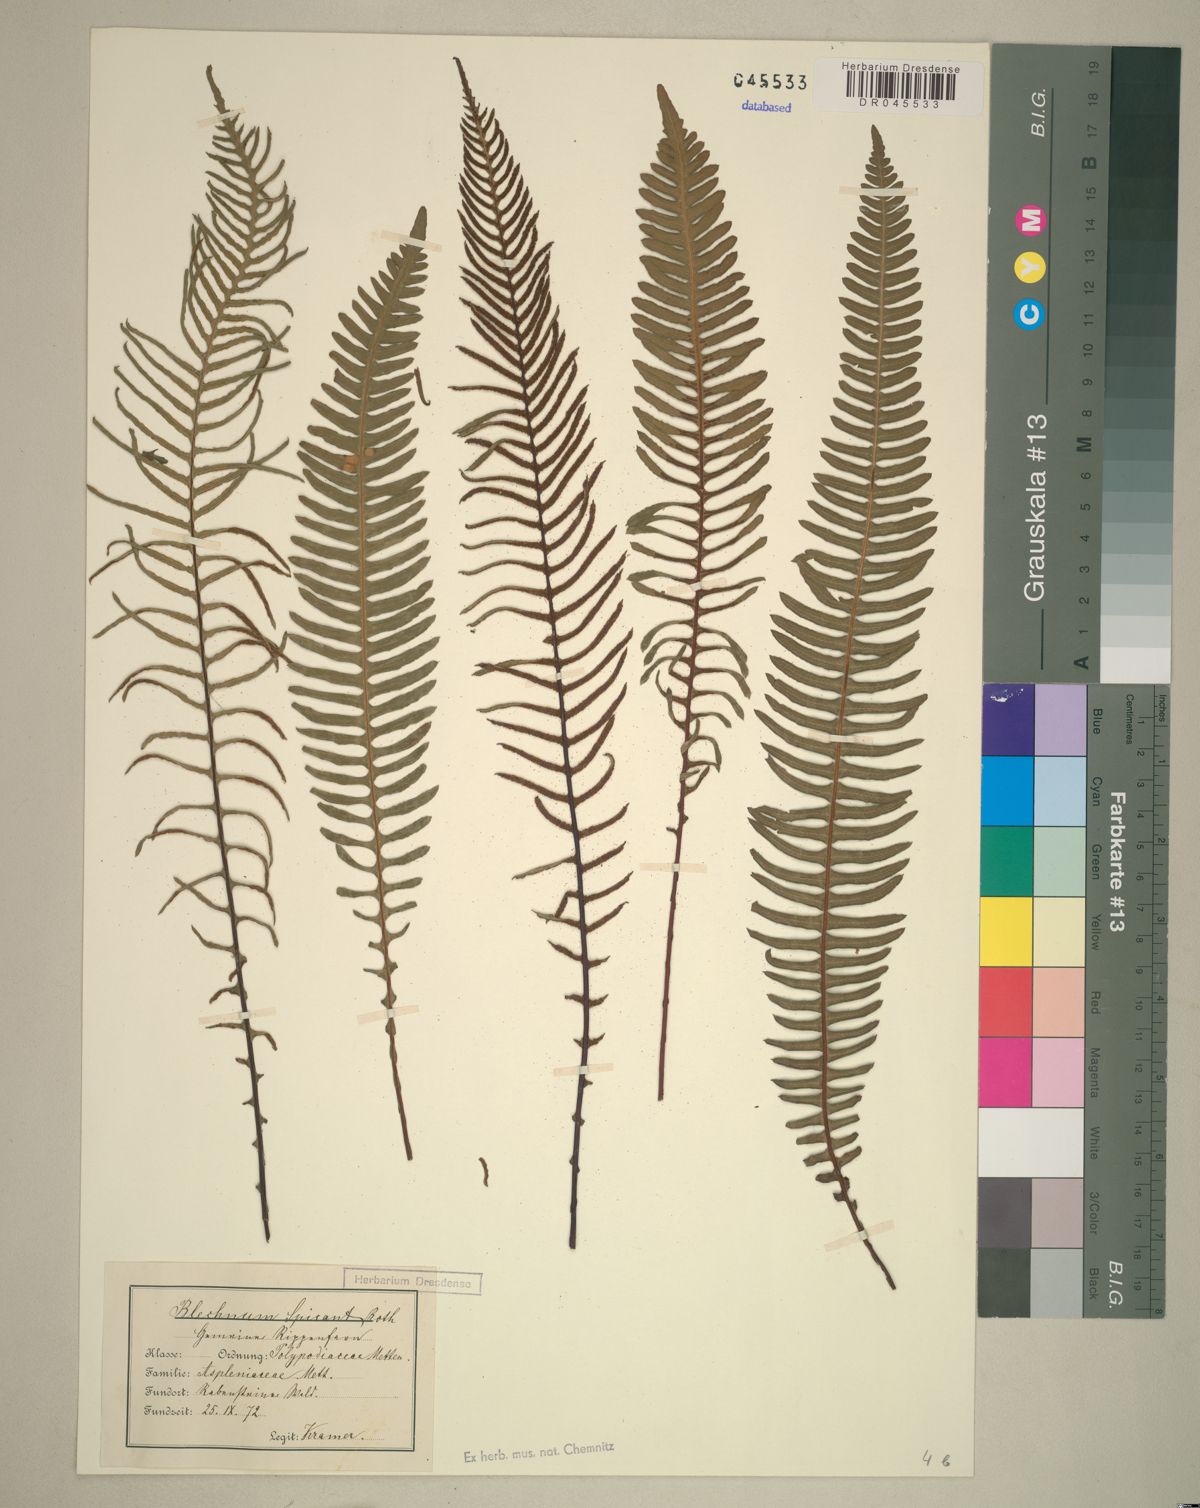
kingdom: Plantae
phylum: Tracheophyta
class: Polypodiopsida
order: Polypodiales
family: Blechnaceae
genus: Struthiopteris
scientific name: Struthiopteris spicant
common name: Deer fern
